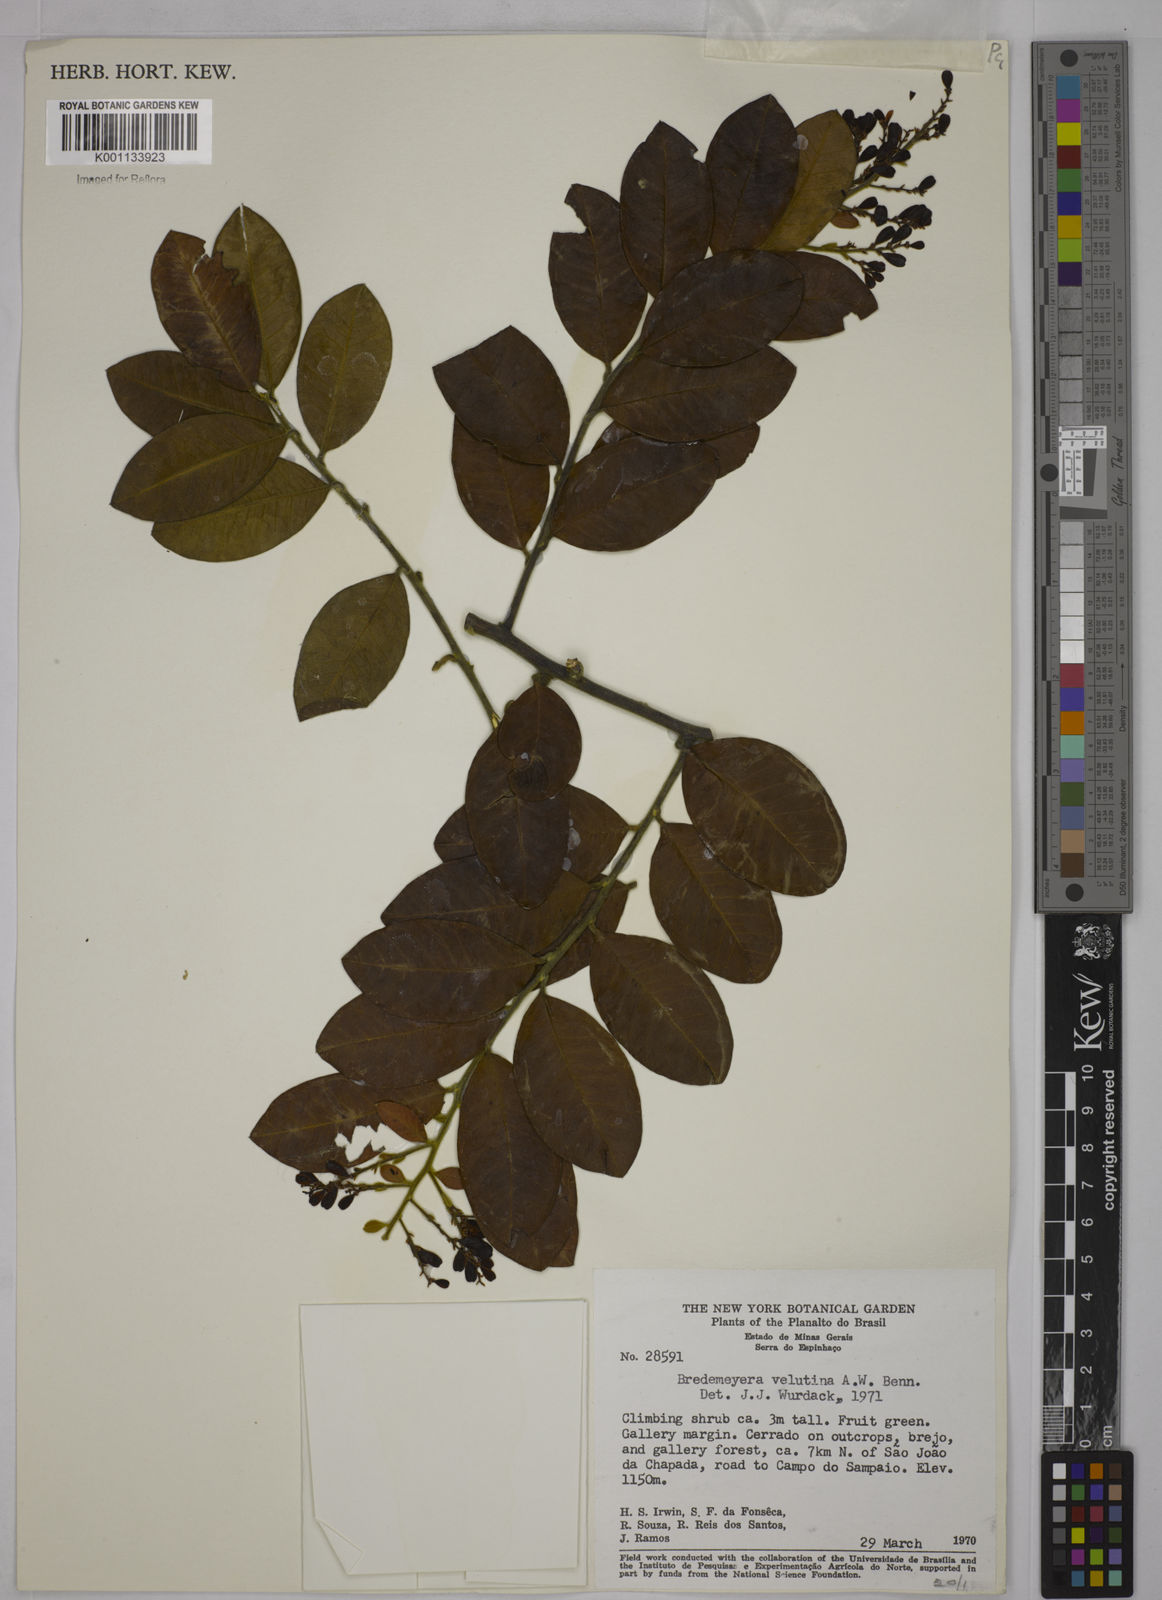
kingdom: Plantae
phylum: Tracheophyta
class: Magnoliopsida
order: Fabales
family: Polygalaceae
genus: Bredemeyera
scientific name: Bredemeyera hebeclada
